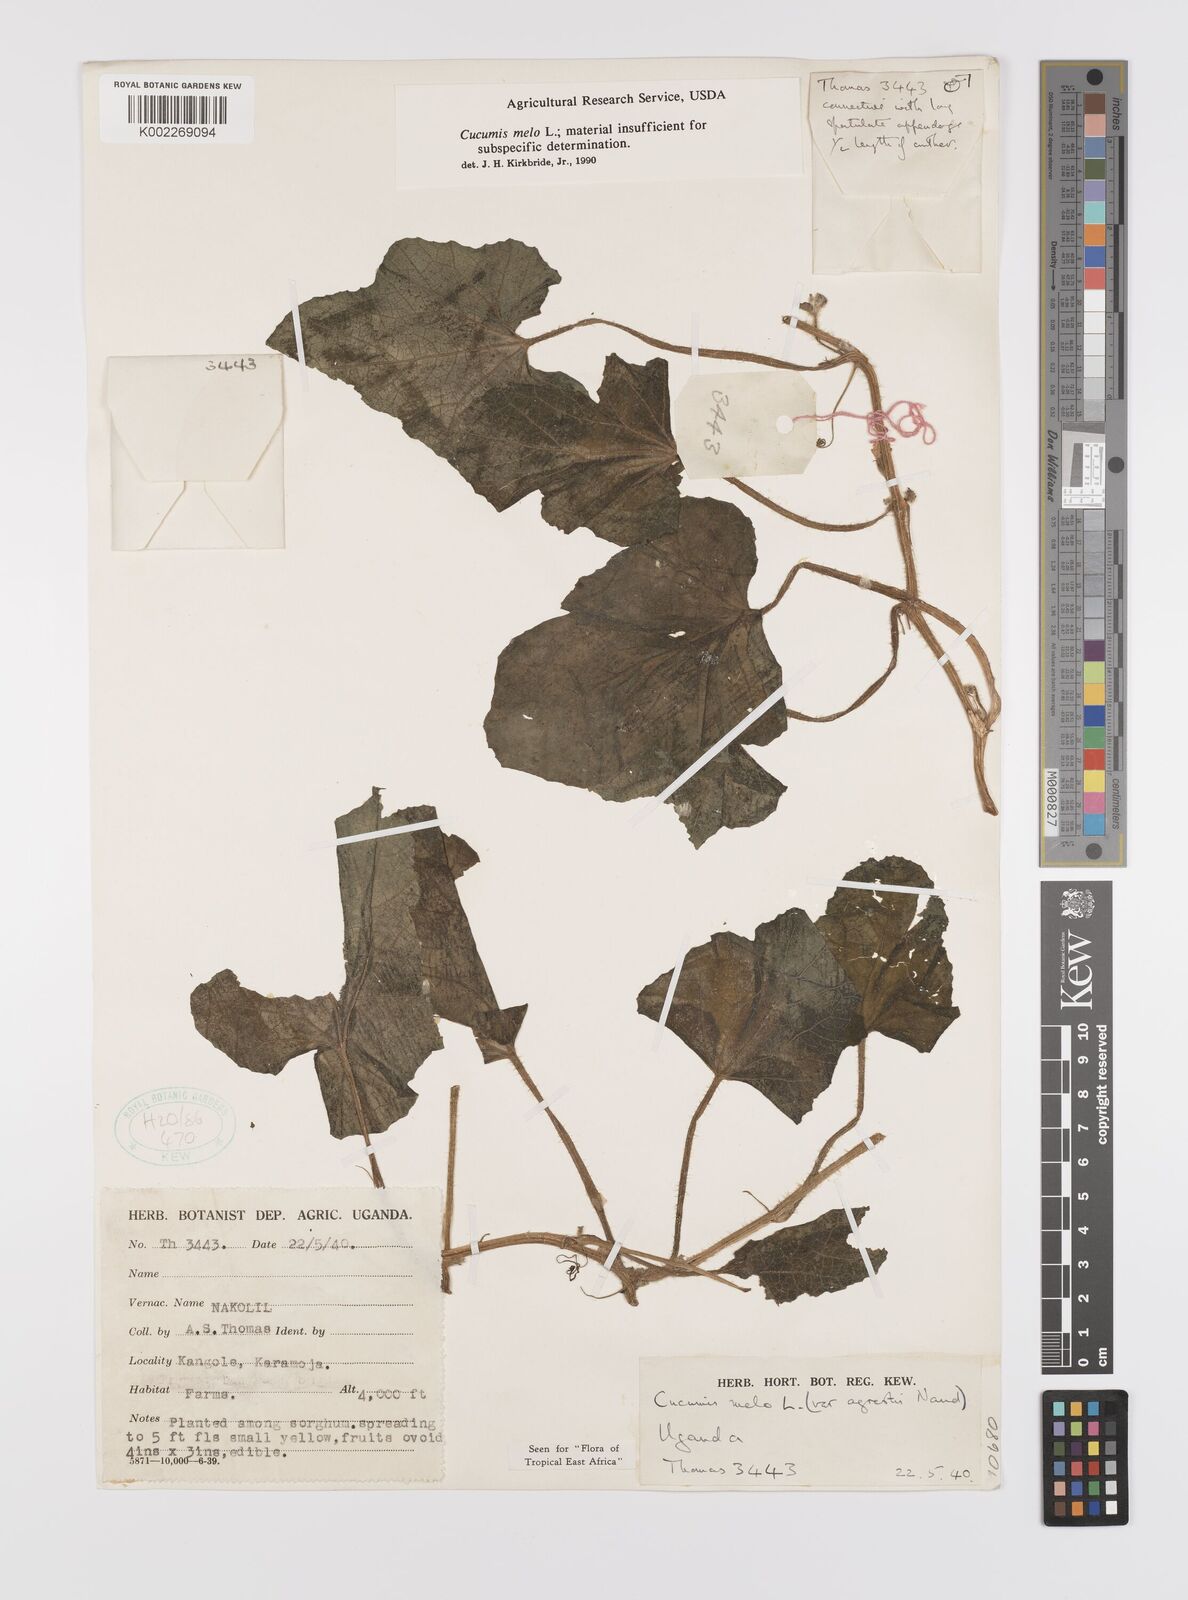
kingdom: Plantae
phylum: Tracheophyta
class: Magnoliopsida
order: Cucurbitales
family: Cucurbitaceae
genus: Cucumis
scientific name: Cucumis melo
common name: Melon
